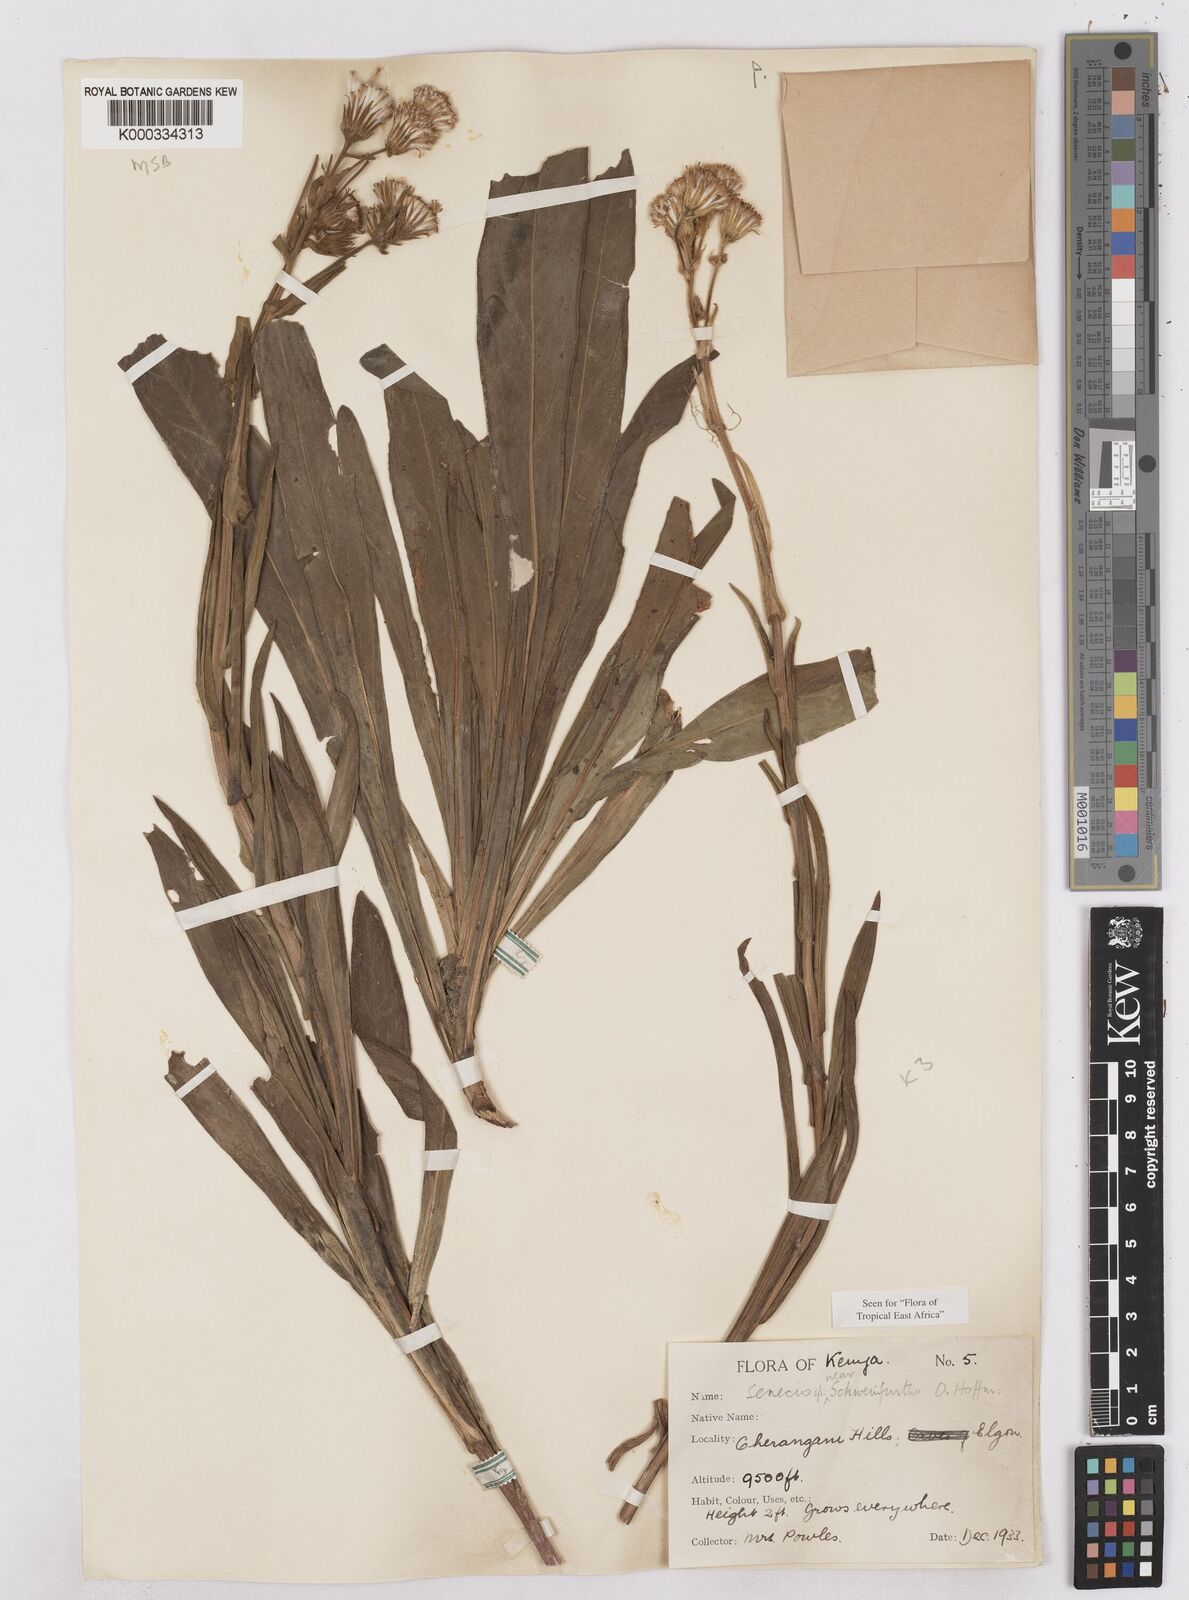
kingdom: Plantae
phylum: Tracheophyta
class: Magnoliopsida
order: Asterales
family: Asteraceae
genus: Senecio
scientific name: Senecio schweinfurthii
